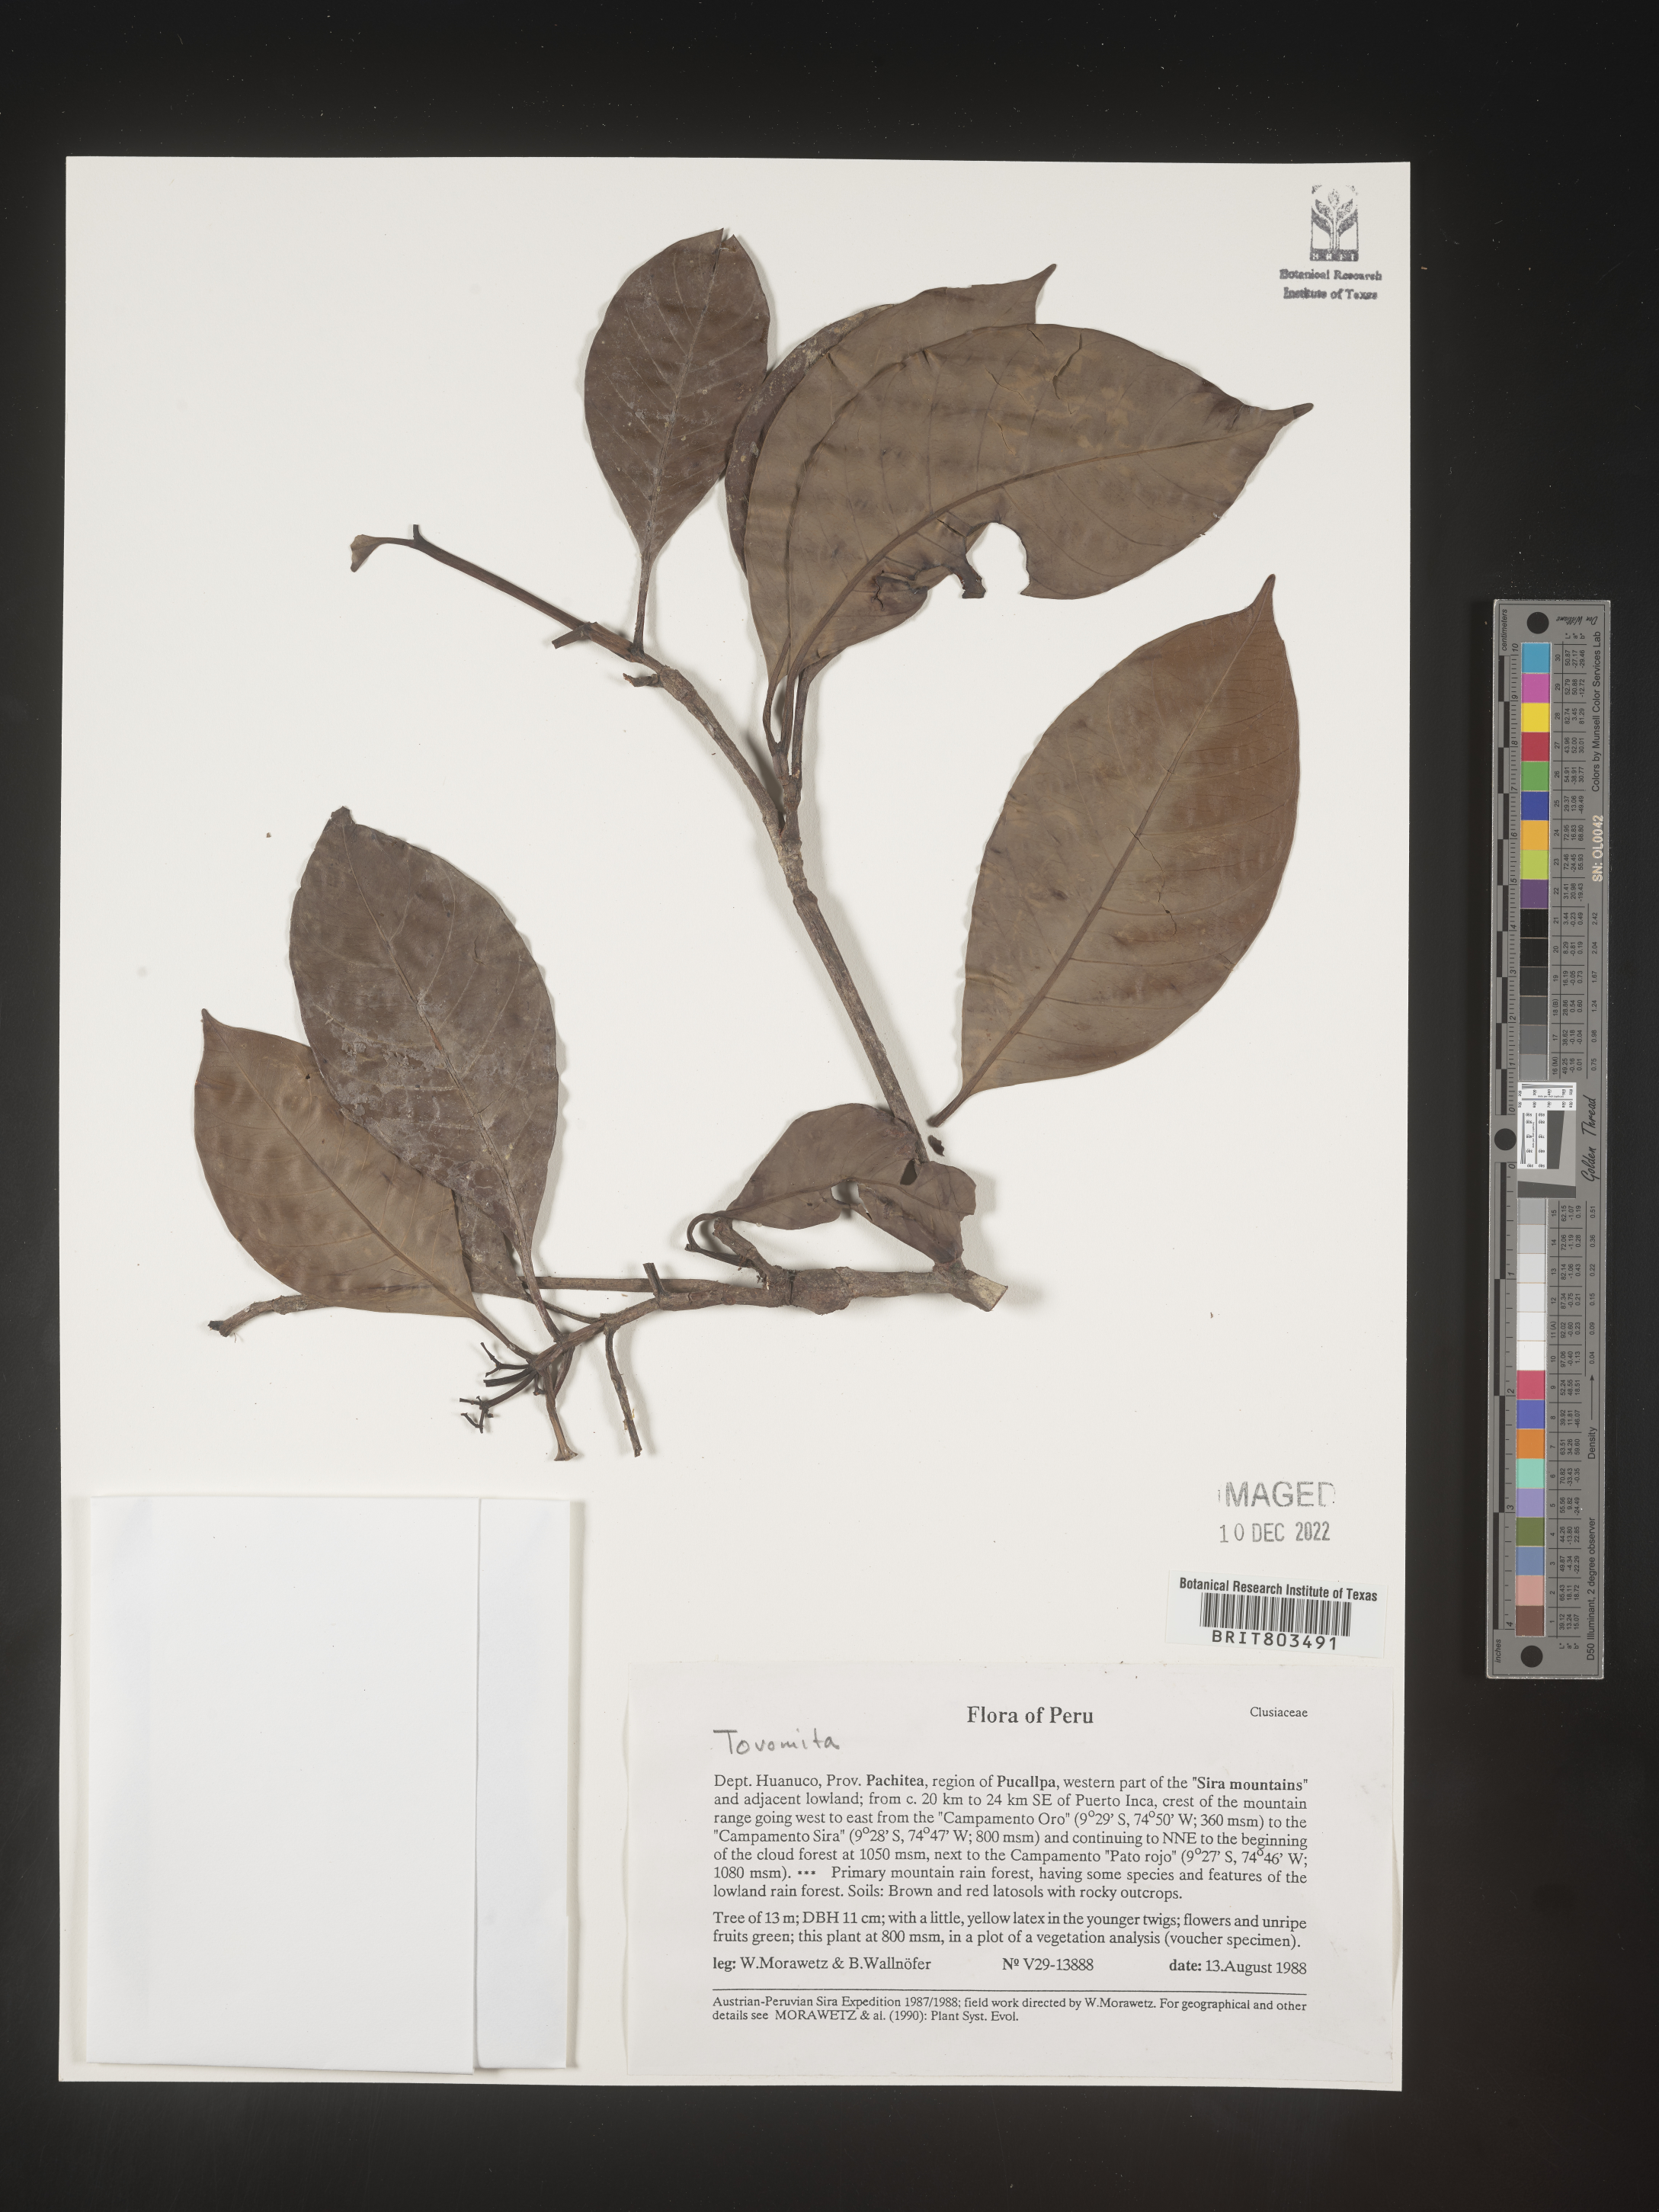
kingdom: Plantae
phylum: Tracheophyta
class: Magnoliopsida
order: Malpighiales
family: Clusiaceae
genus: Tovomita
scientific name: Tovomita
